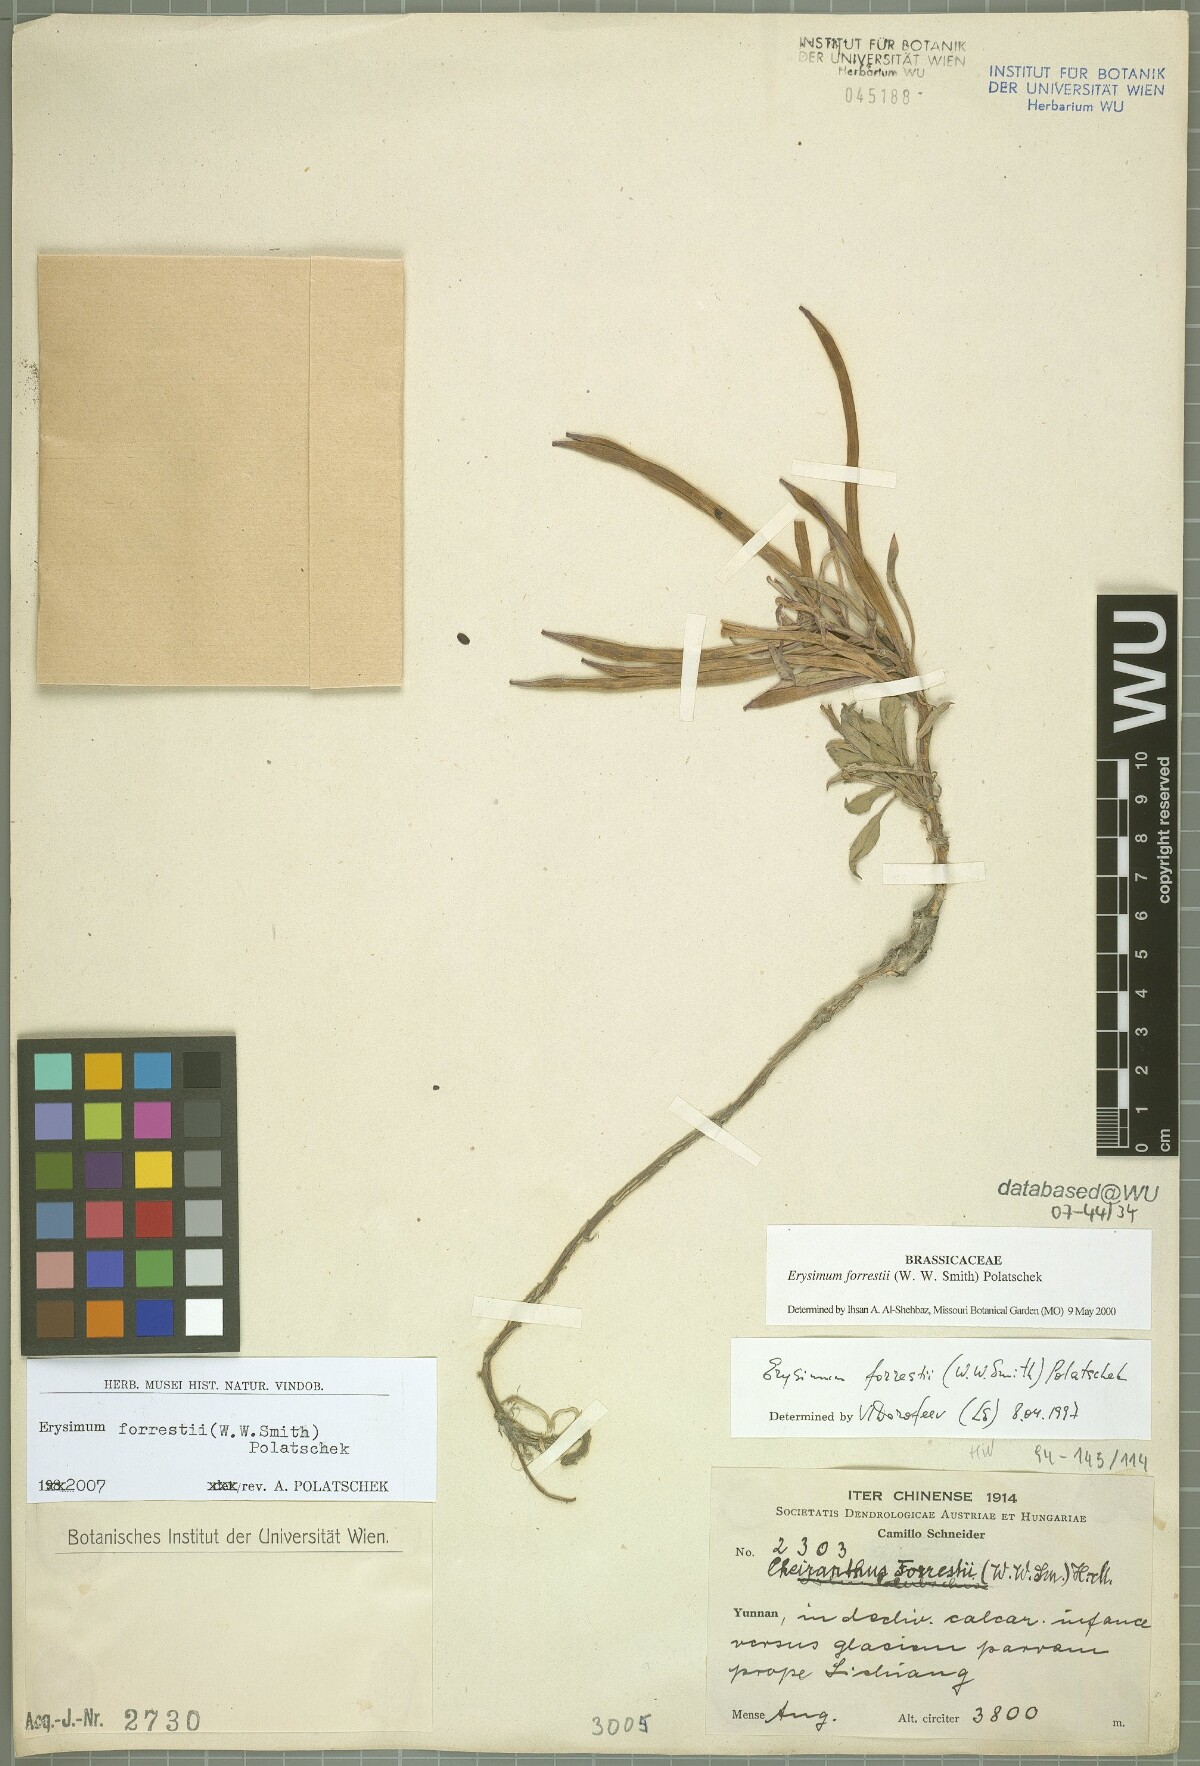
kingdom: Plantae
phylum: Tracheophyta
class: Magnoliopsida
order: Brassicales
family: Brassicaceae
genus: Erysimum
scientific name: Erysimum forrestii
